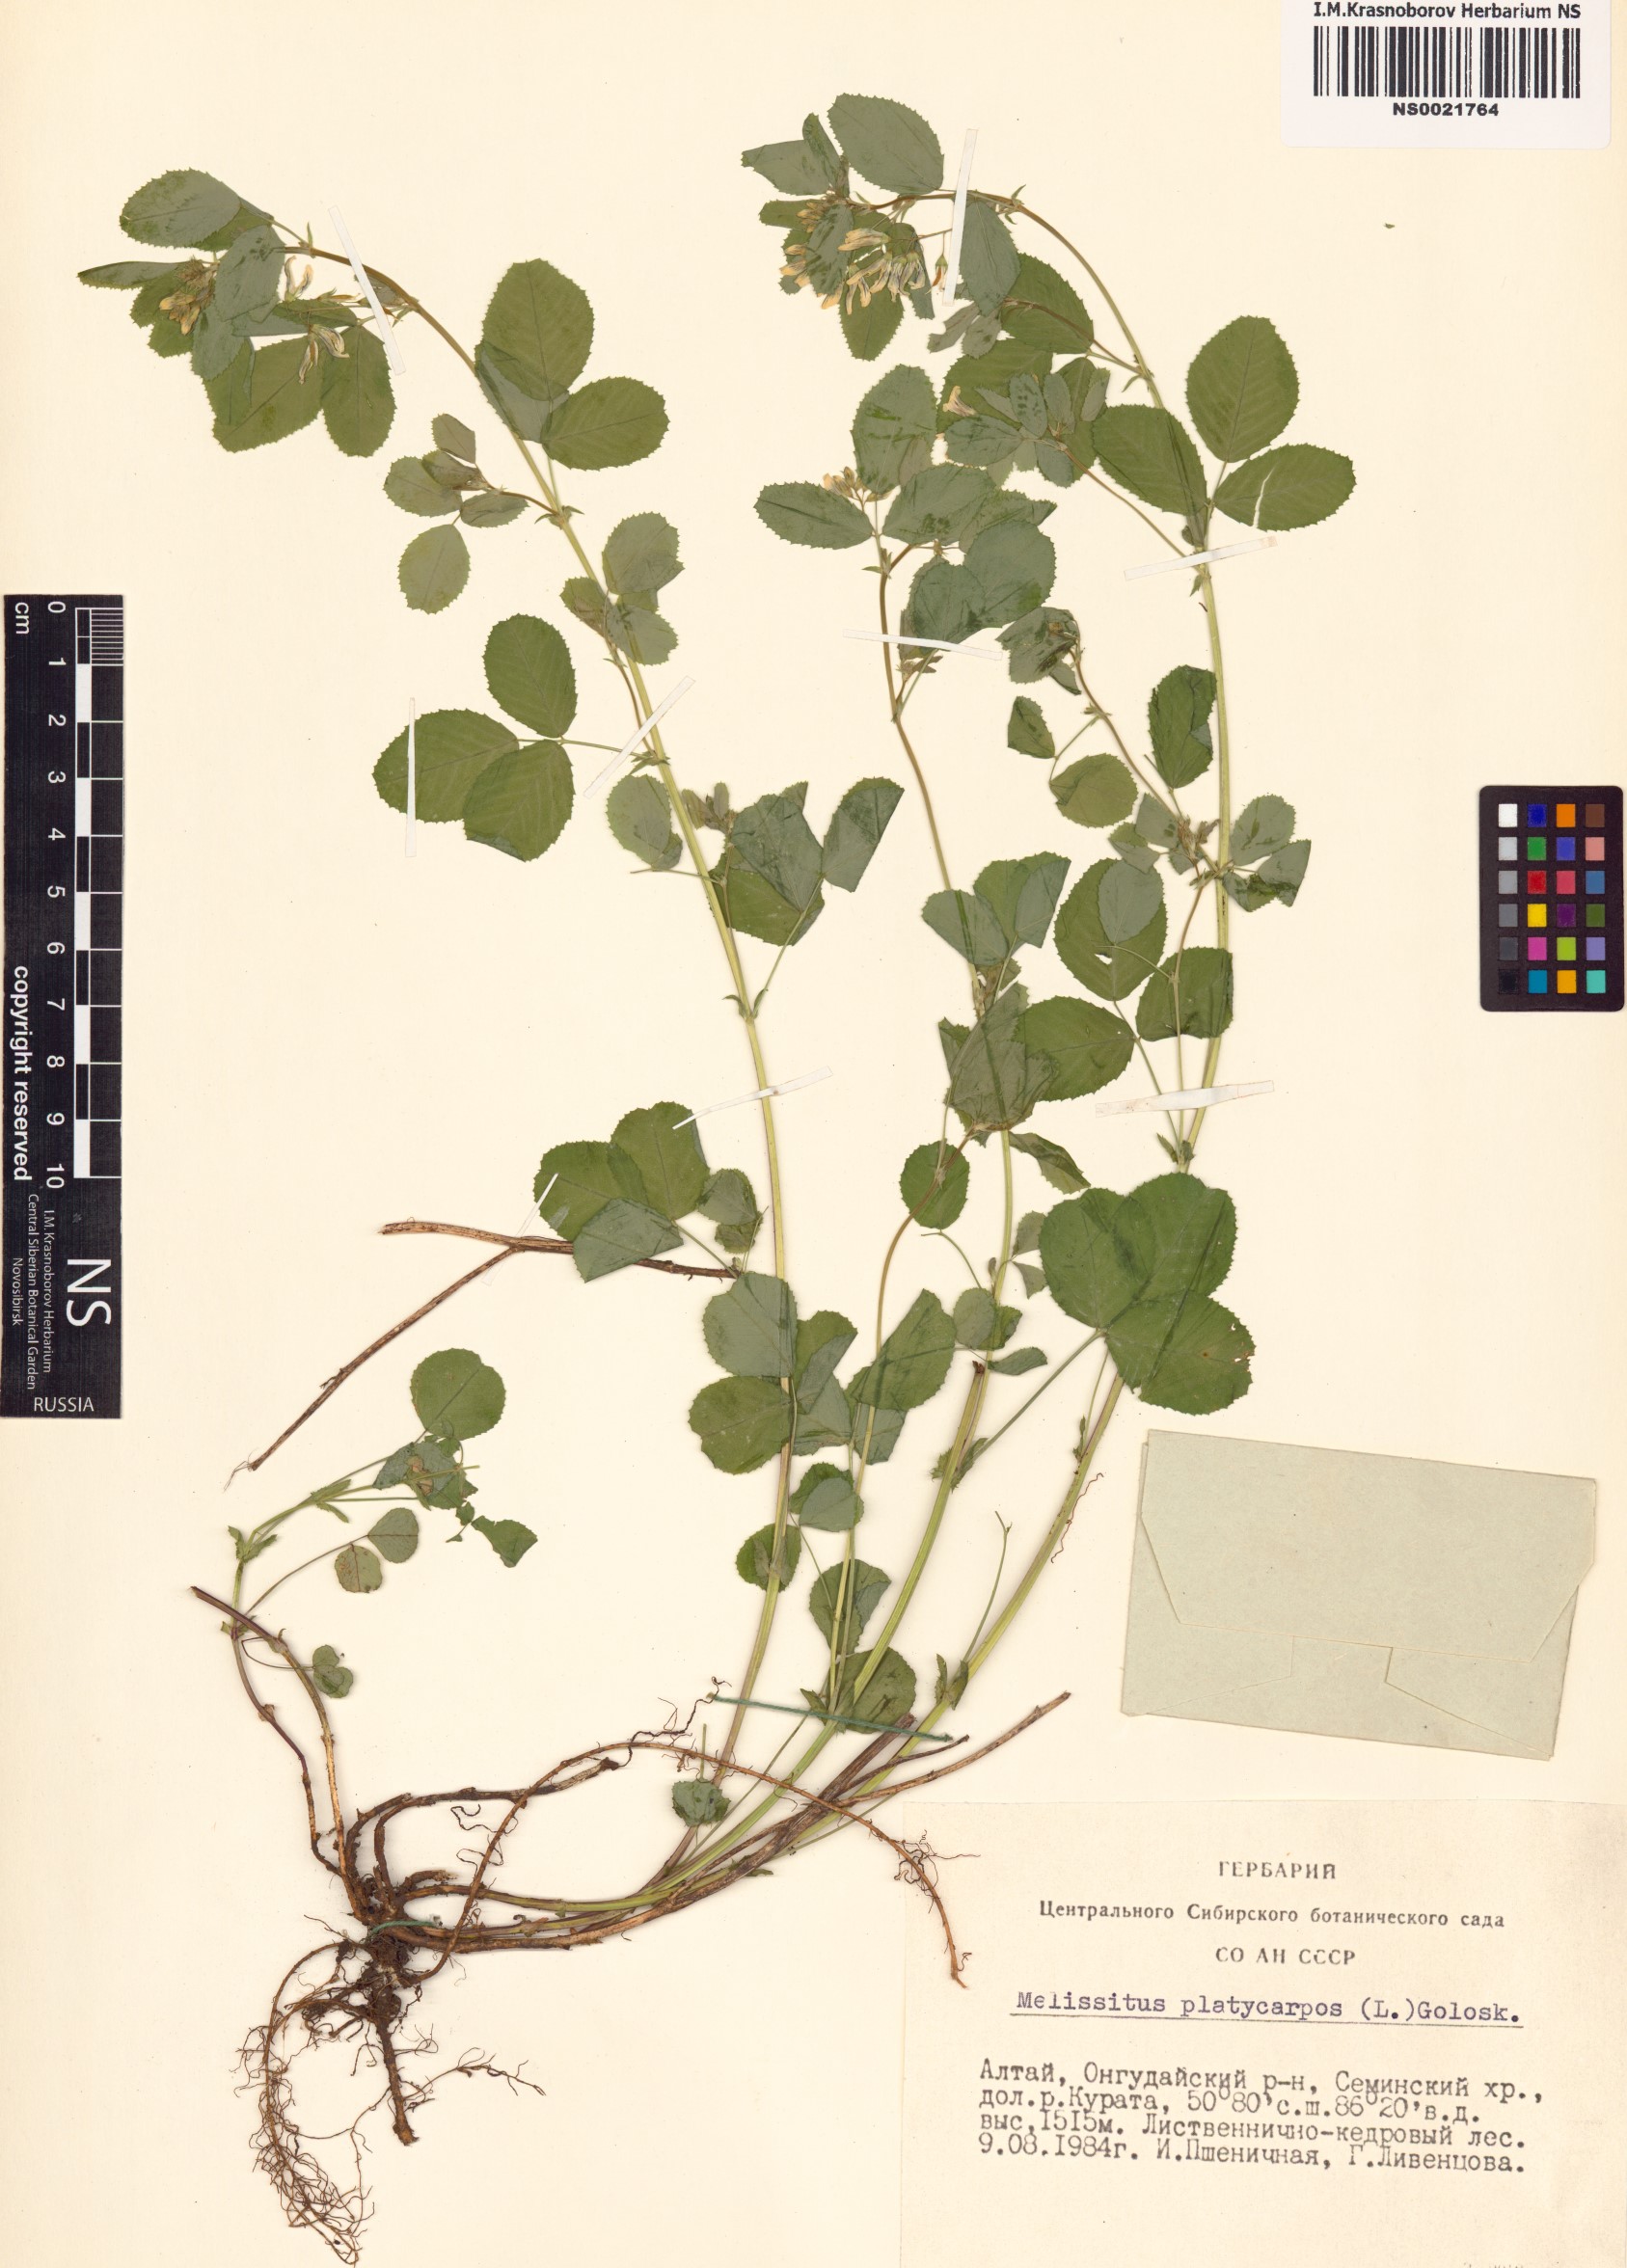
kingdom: Plantae
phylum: Tracheophyta
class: Magnoliopsida
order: Fabales
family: Fabaceae
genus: Medicago
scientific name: Medicago platycarpos
